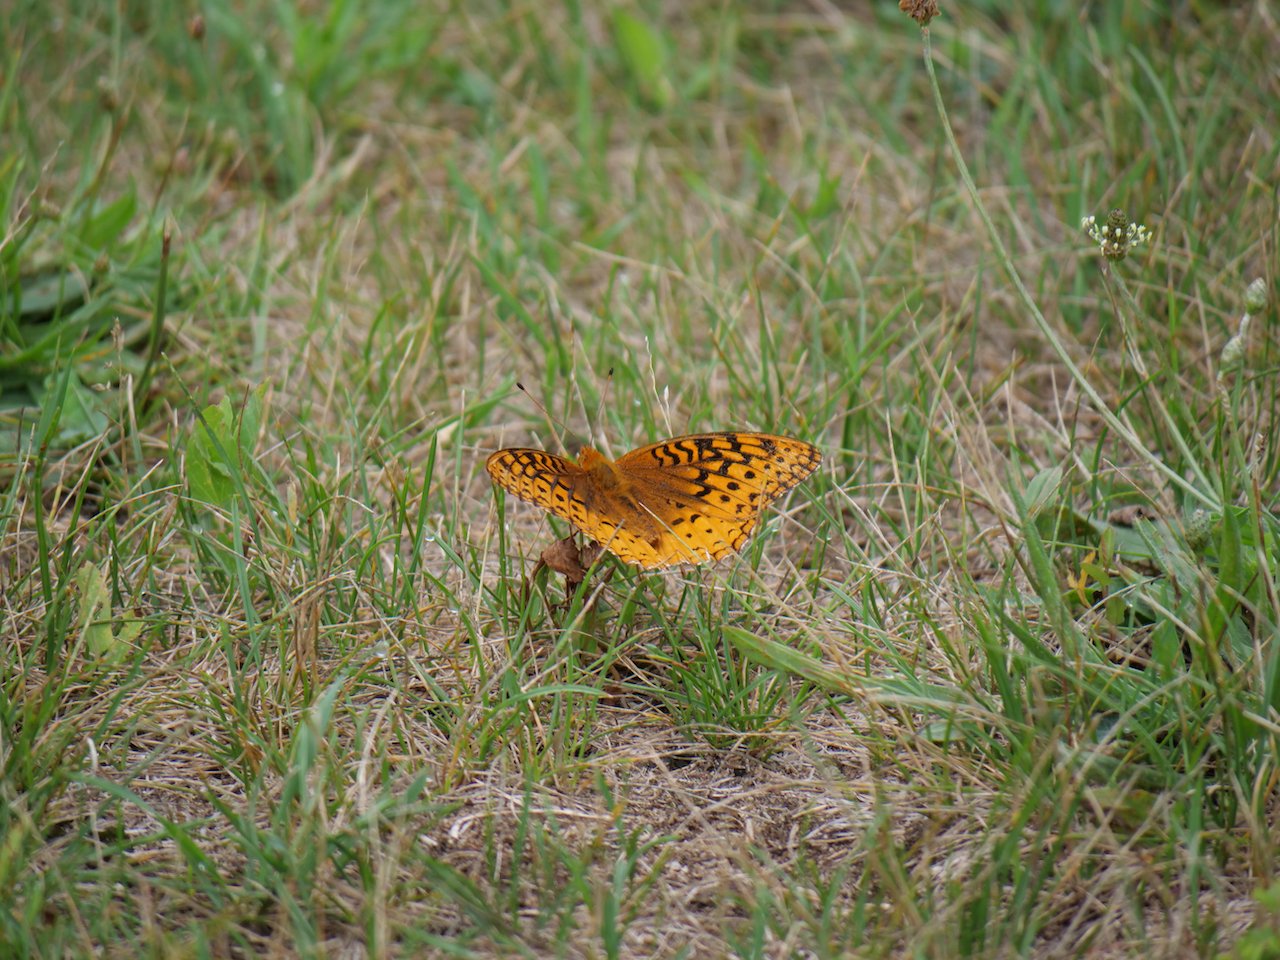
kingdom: Animalia
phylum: Arthropoda
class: Insecta
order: Lepidoptera
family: Nymphalidae
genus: Speyeria
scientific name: Speyeria cybele
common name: Great Spangled Fritillary
